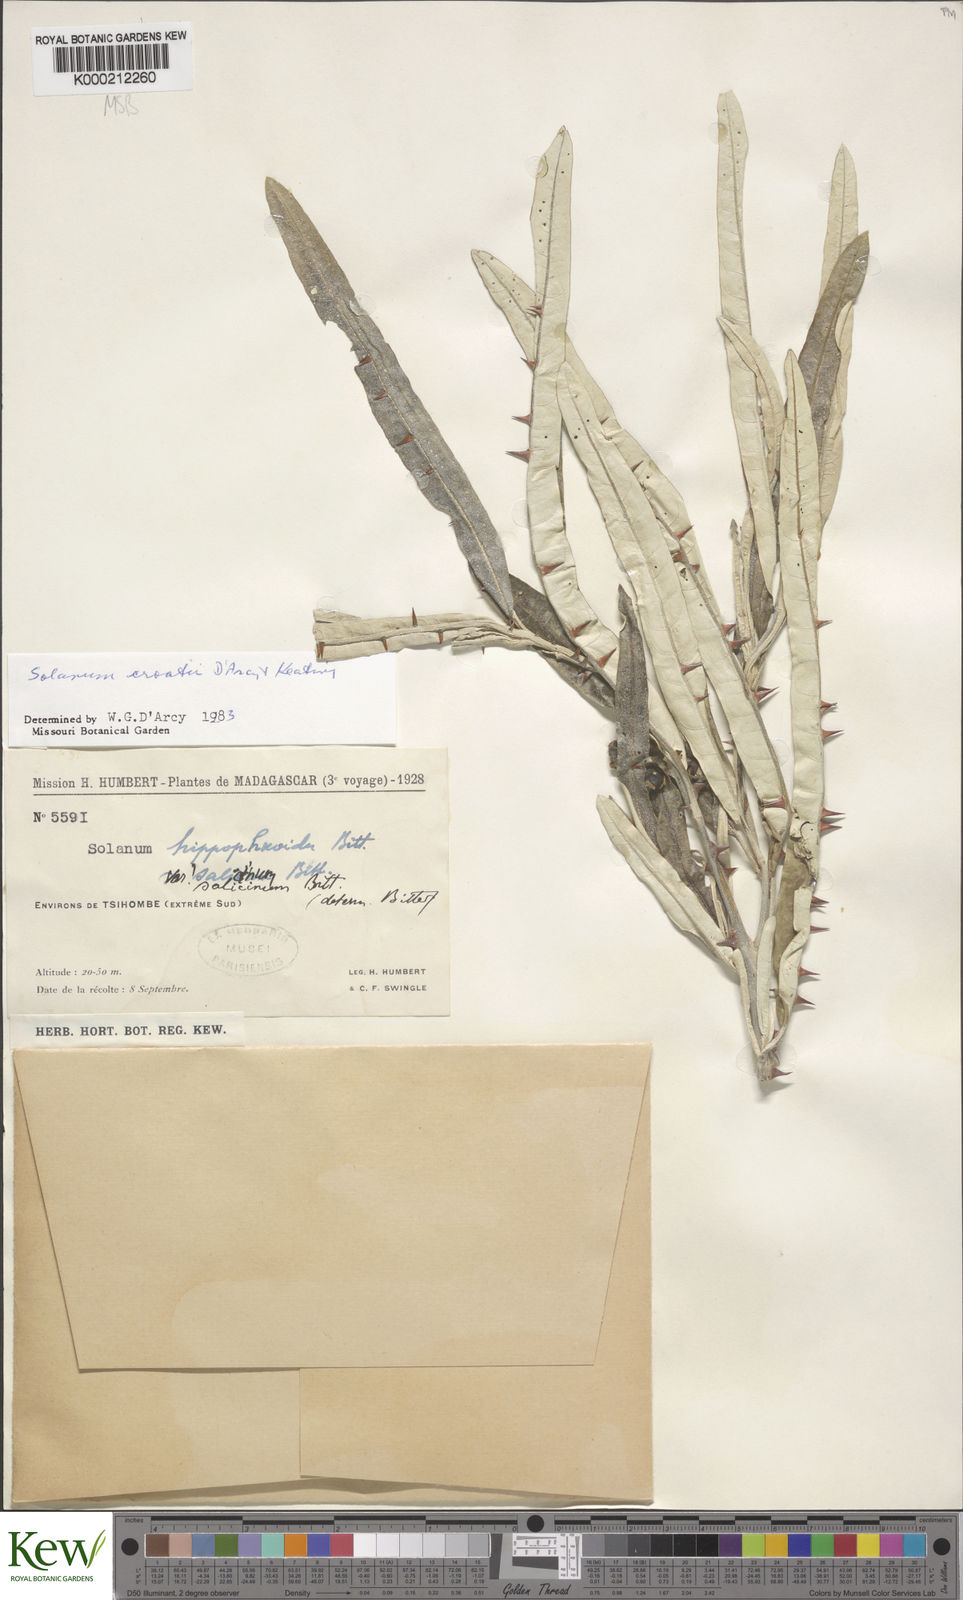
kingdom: Plantae
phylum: Tracheophyta
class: Magnoliopsida
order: Solanales
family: Solanaceae
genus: Solanum
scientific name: Solanum croatii
